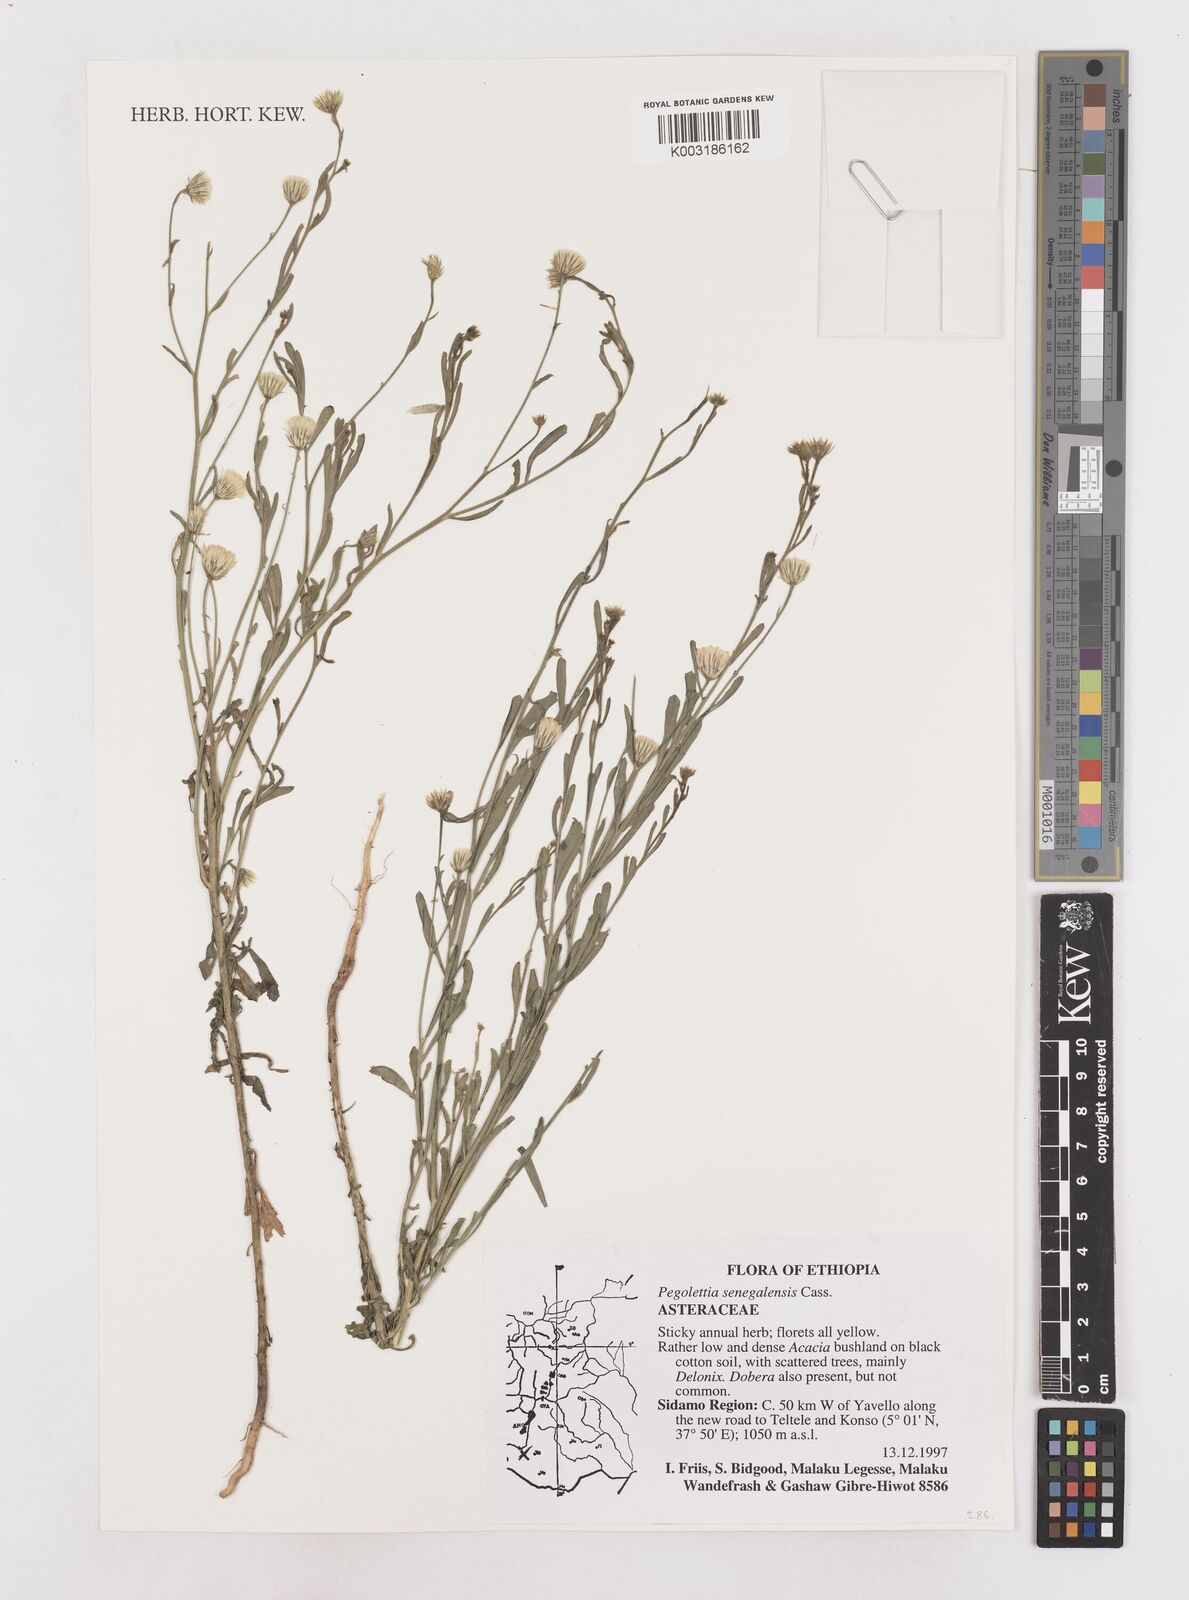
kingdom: Plantae
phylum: Tracheophyta
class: Magnoliopsida
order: Asterales
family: Asteraceae
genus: Pegolettia
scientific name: Pegolettia senegalensis
